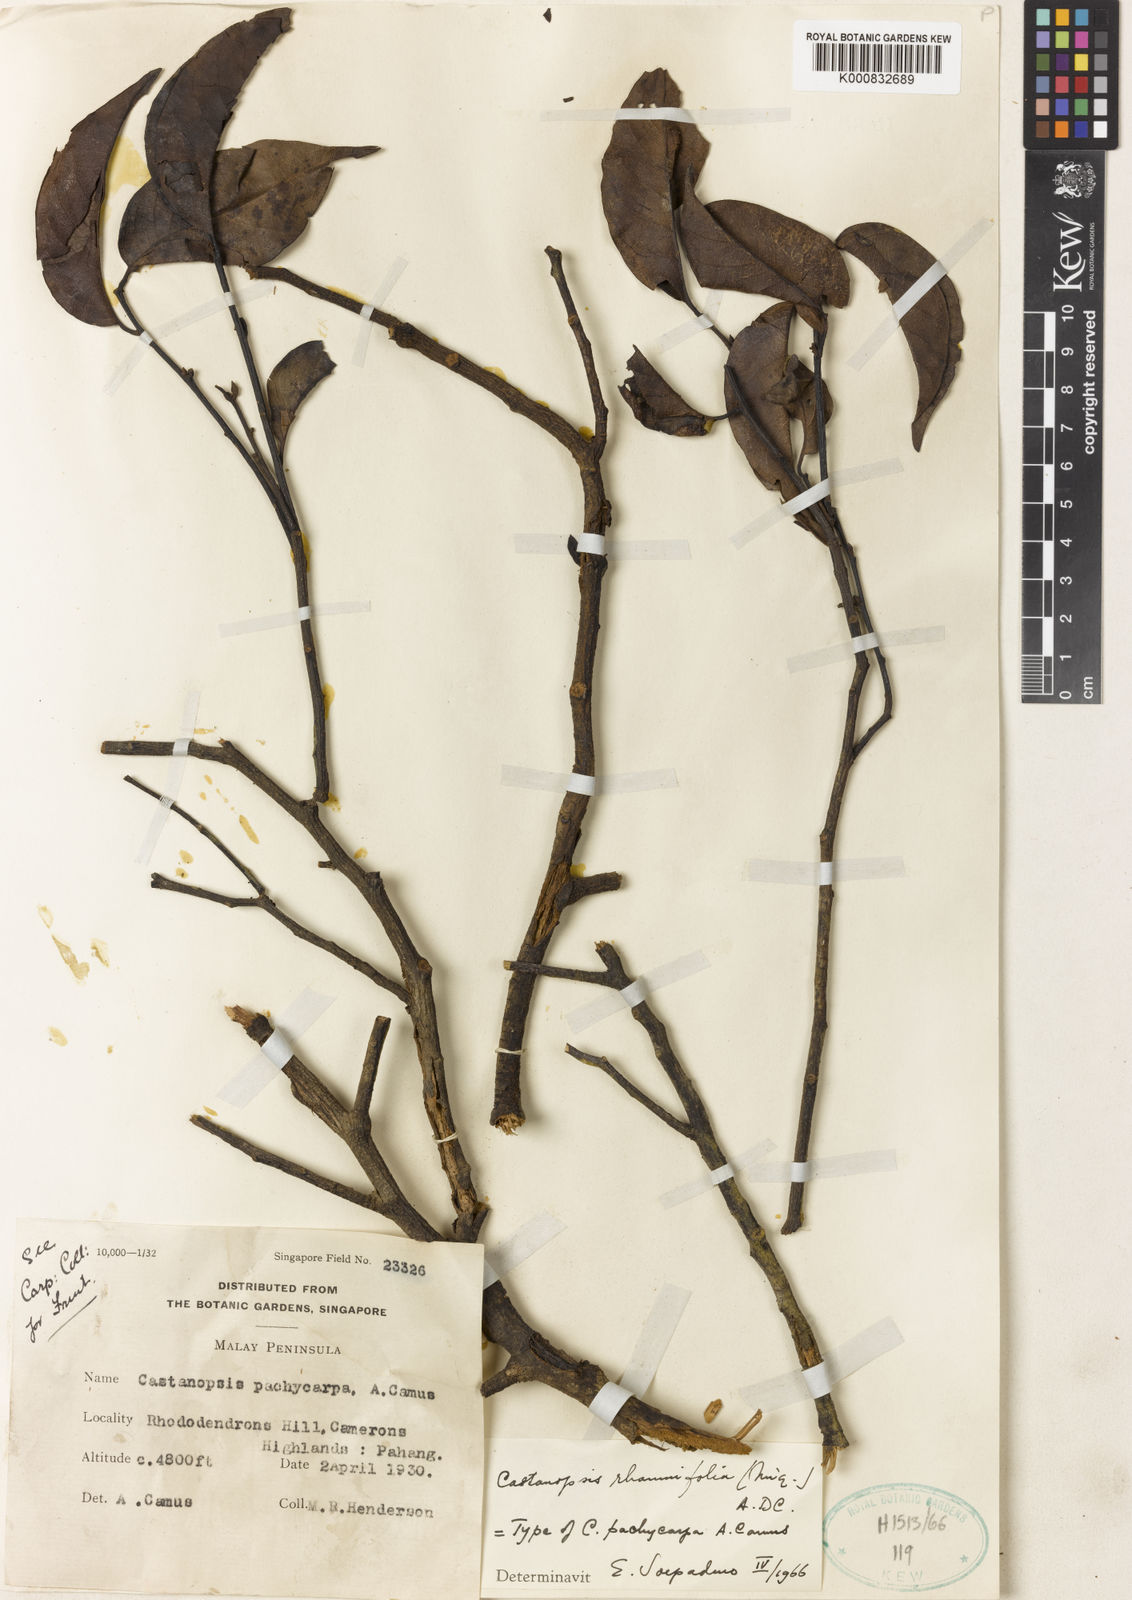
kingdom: Plantae
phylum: Tracheophyta
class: Magnoliopsida
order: Fagales
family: Fagaceae
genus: Castanopsis
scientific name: Castanopsis rhamnifolia
